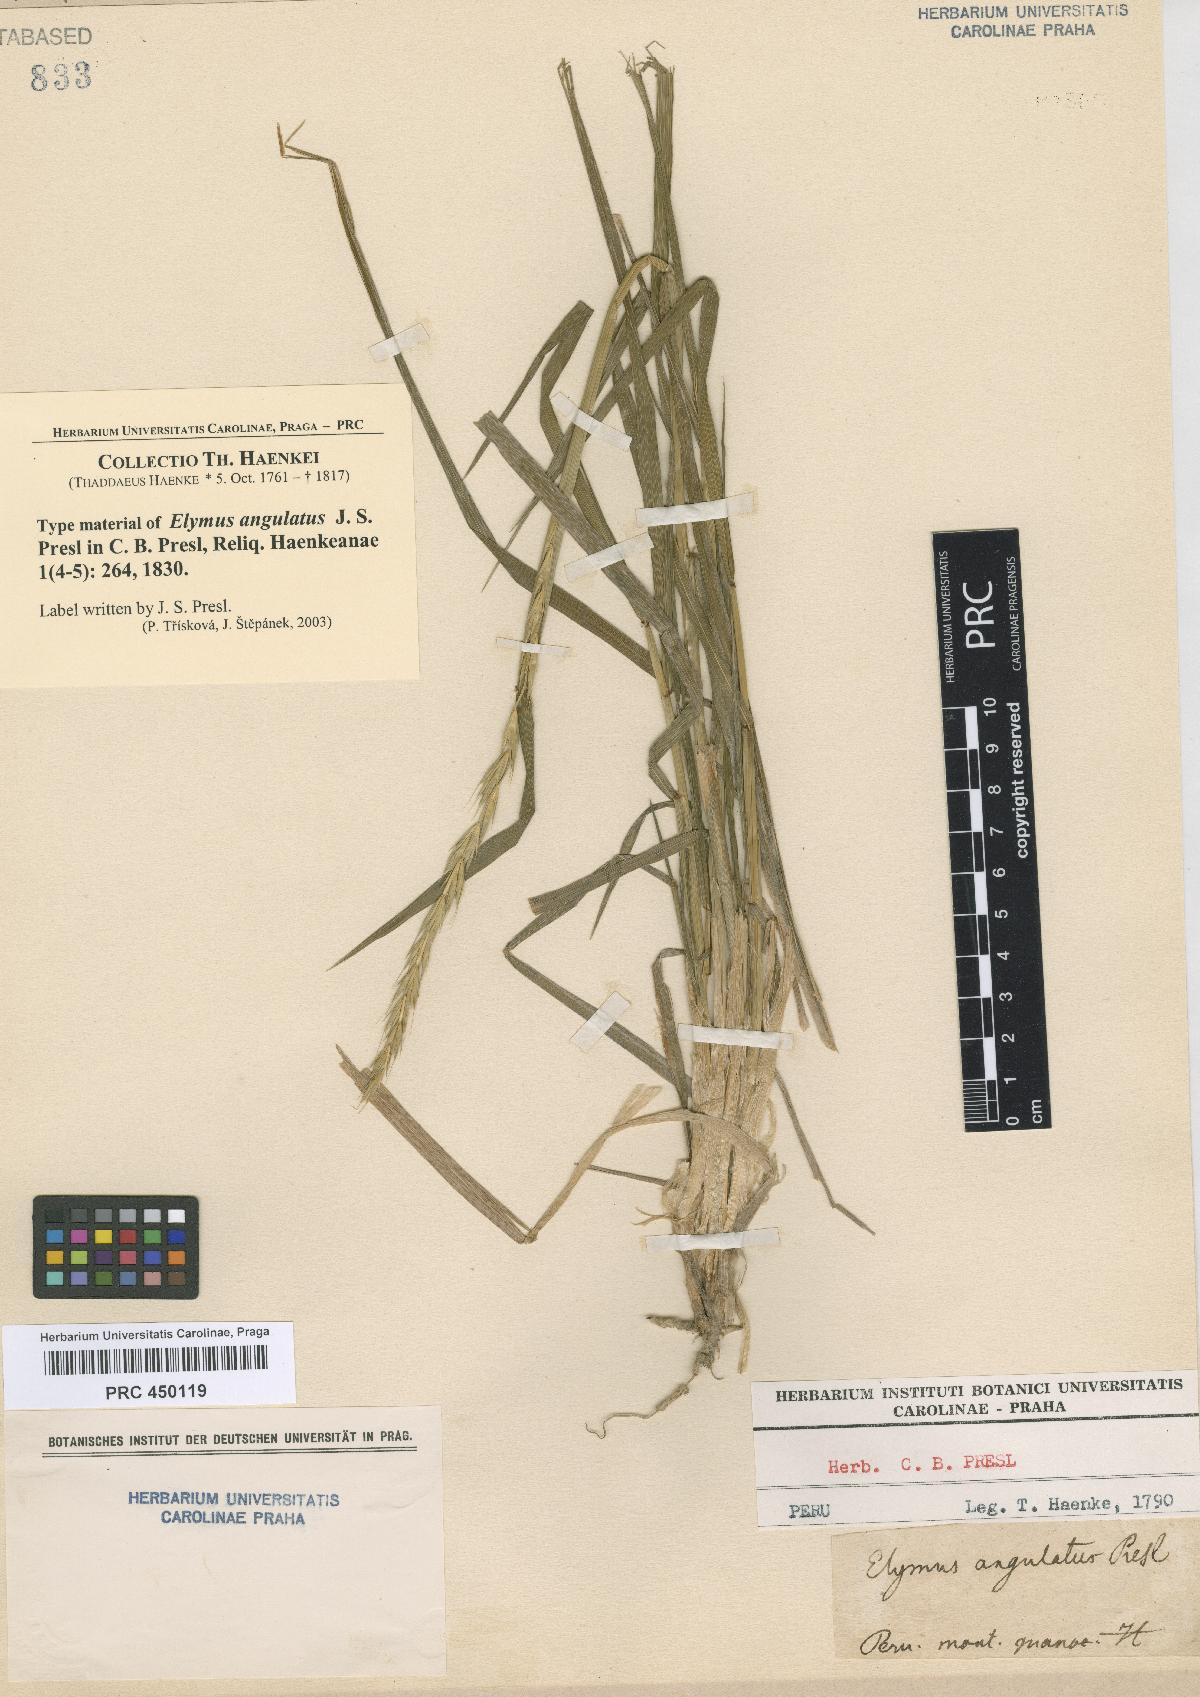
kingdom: Plantae
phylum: Tracheophyta
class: Liliopsida
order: Poales
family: Poaceae
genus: Elymus
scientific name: Elymus angulatus
